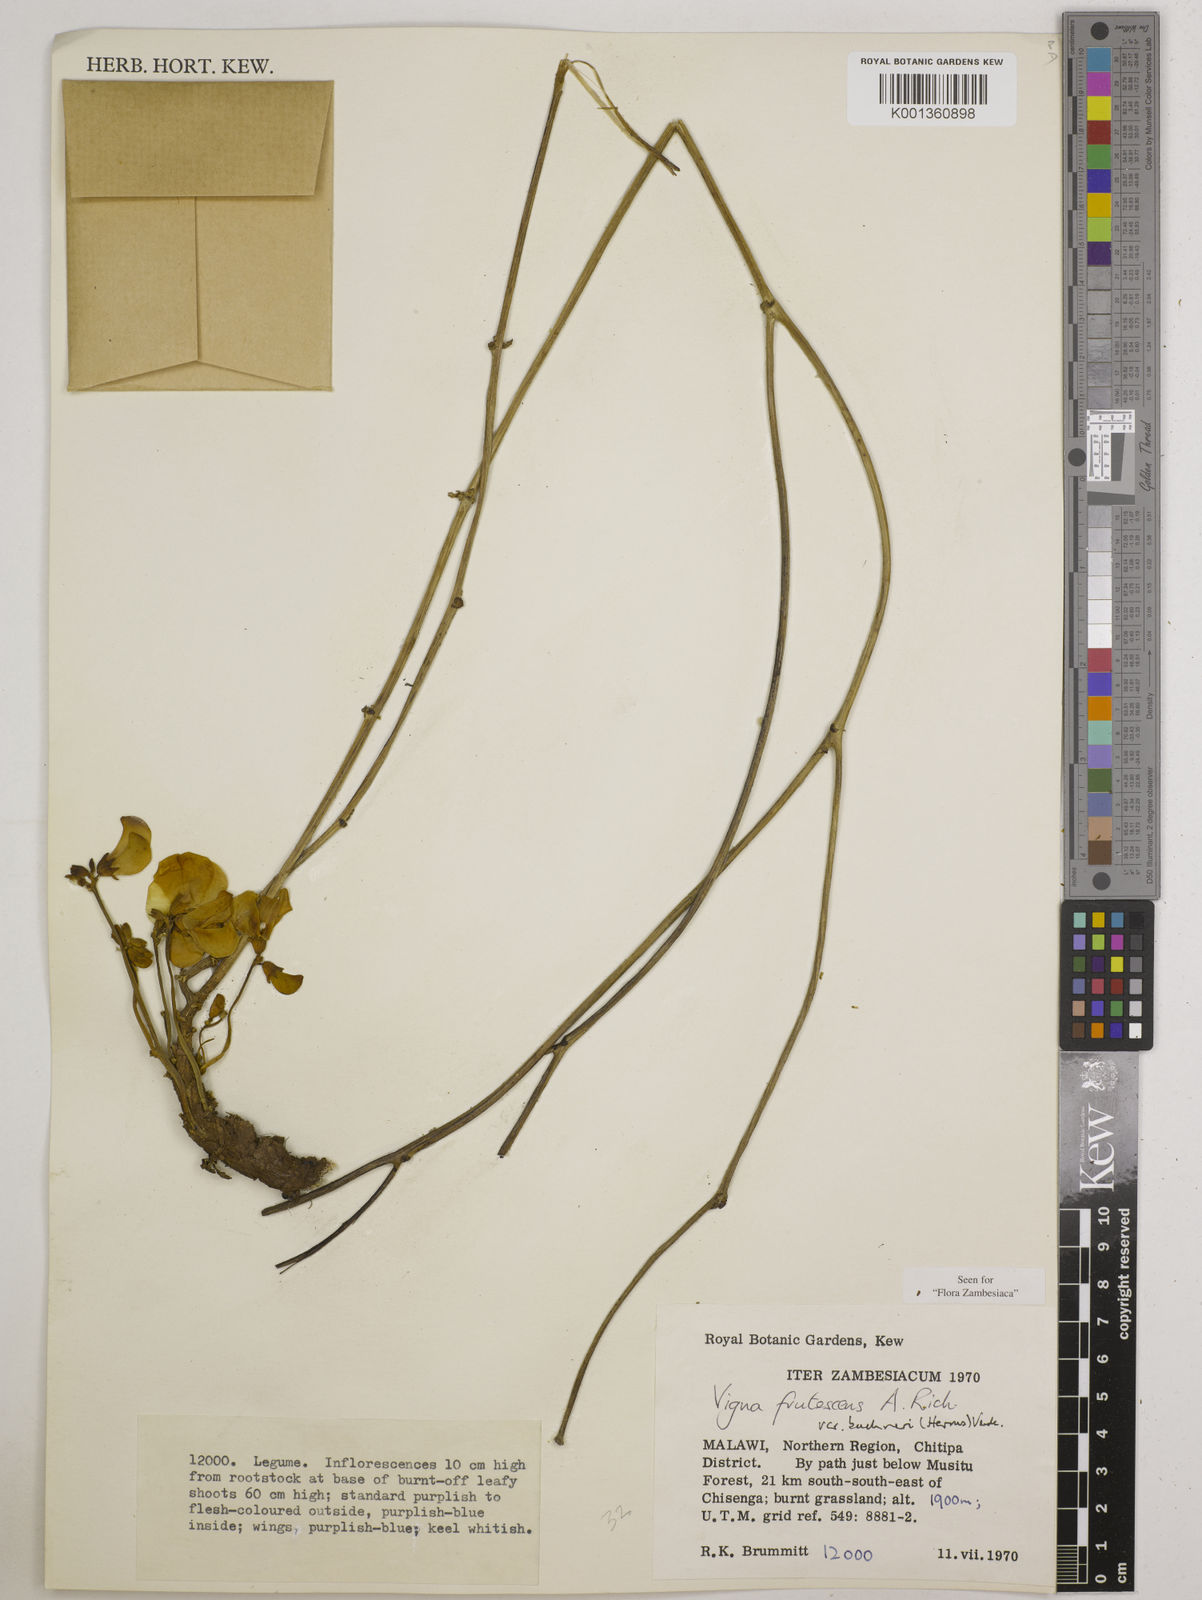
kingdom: Plantae
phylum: Tracheophyta
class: Magnoliopsida
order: Fabales
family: Fabaceae
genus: Vigna
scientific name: Vigna
